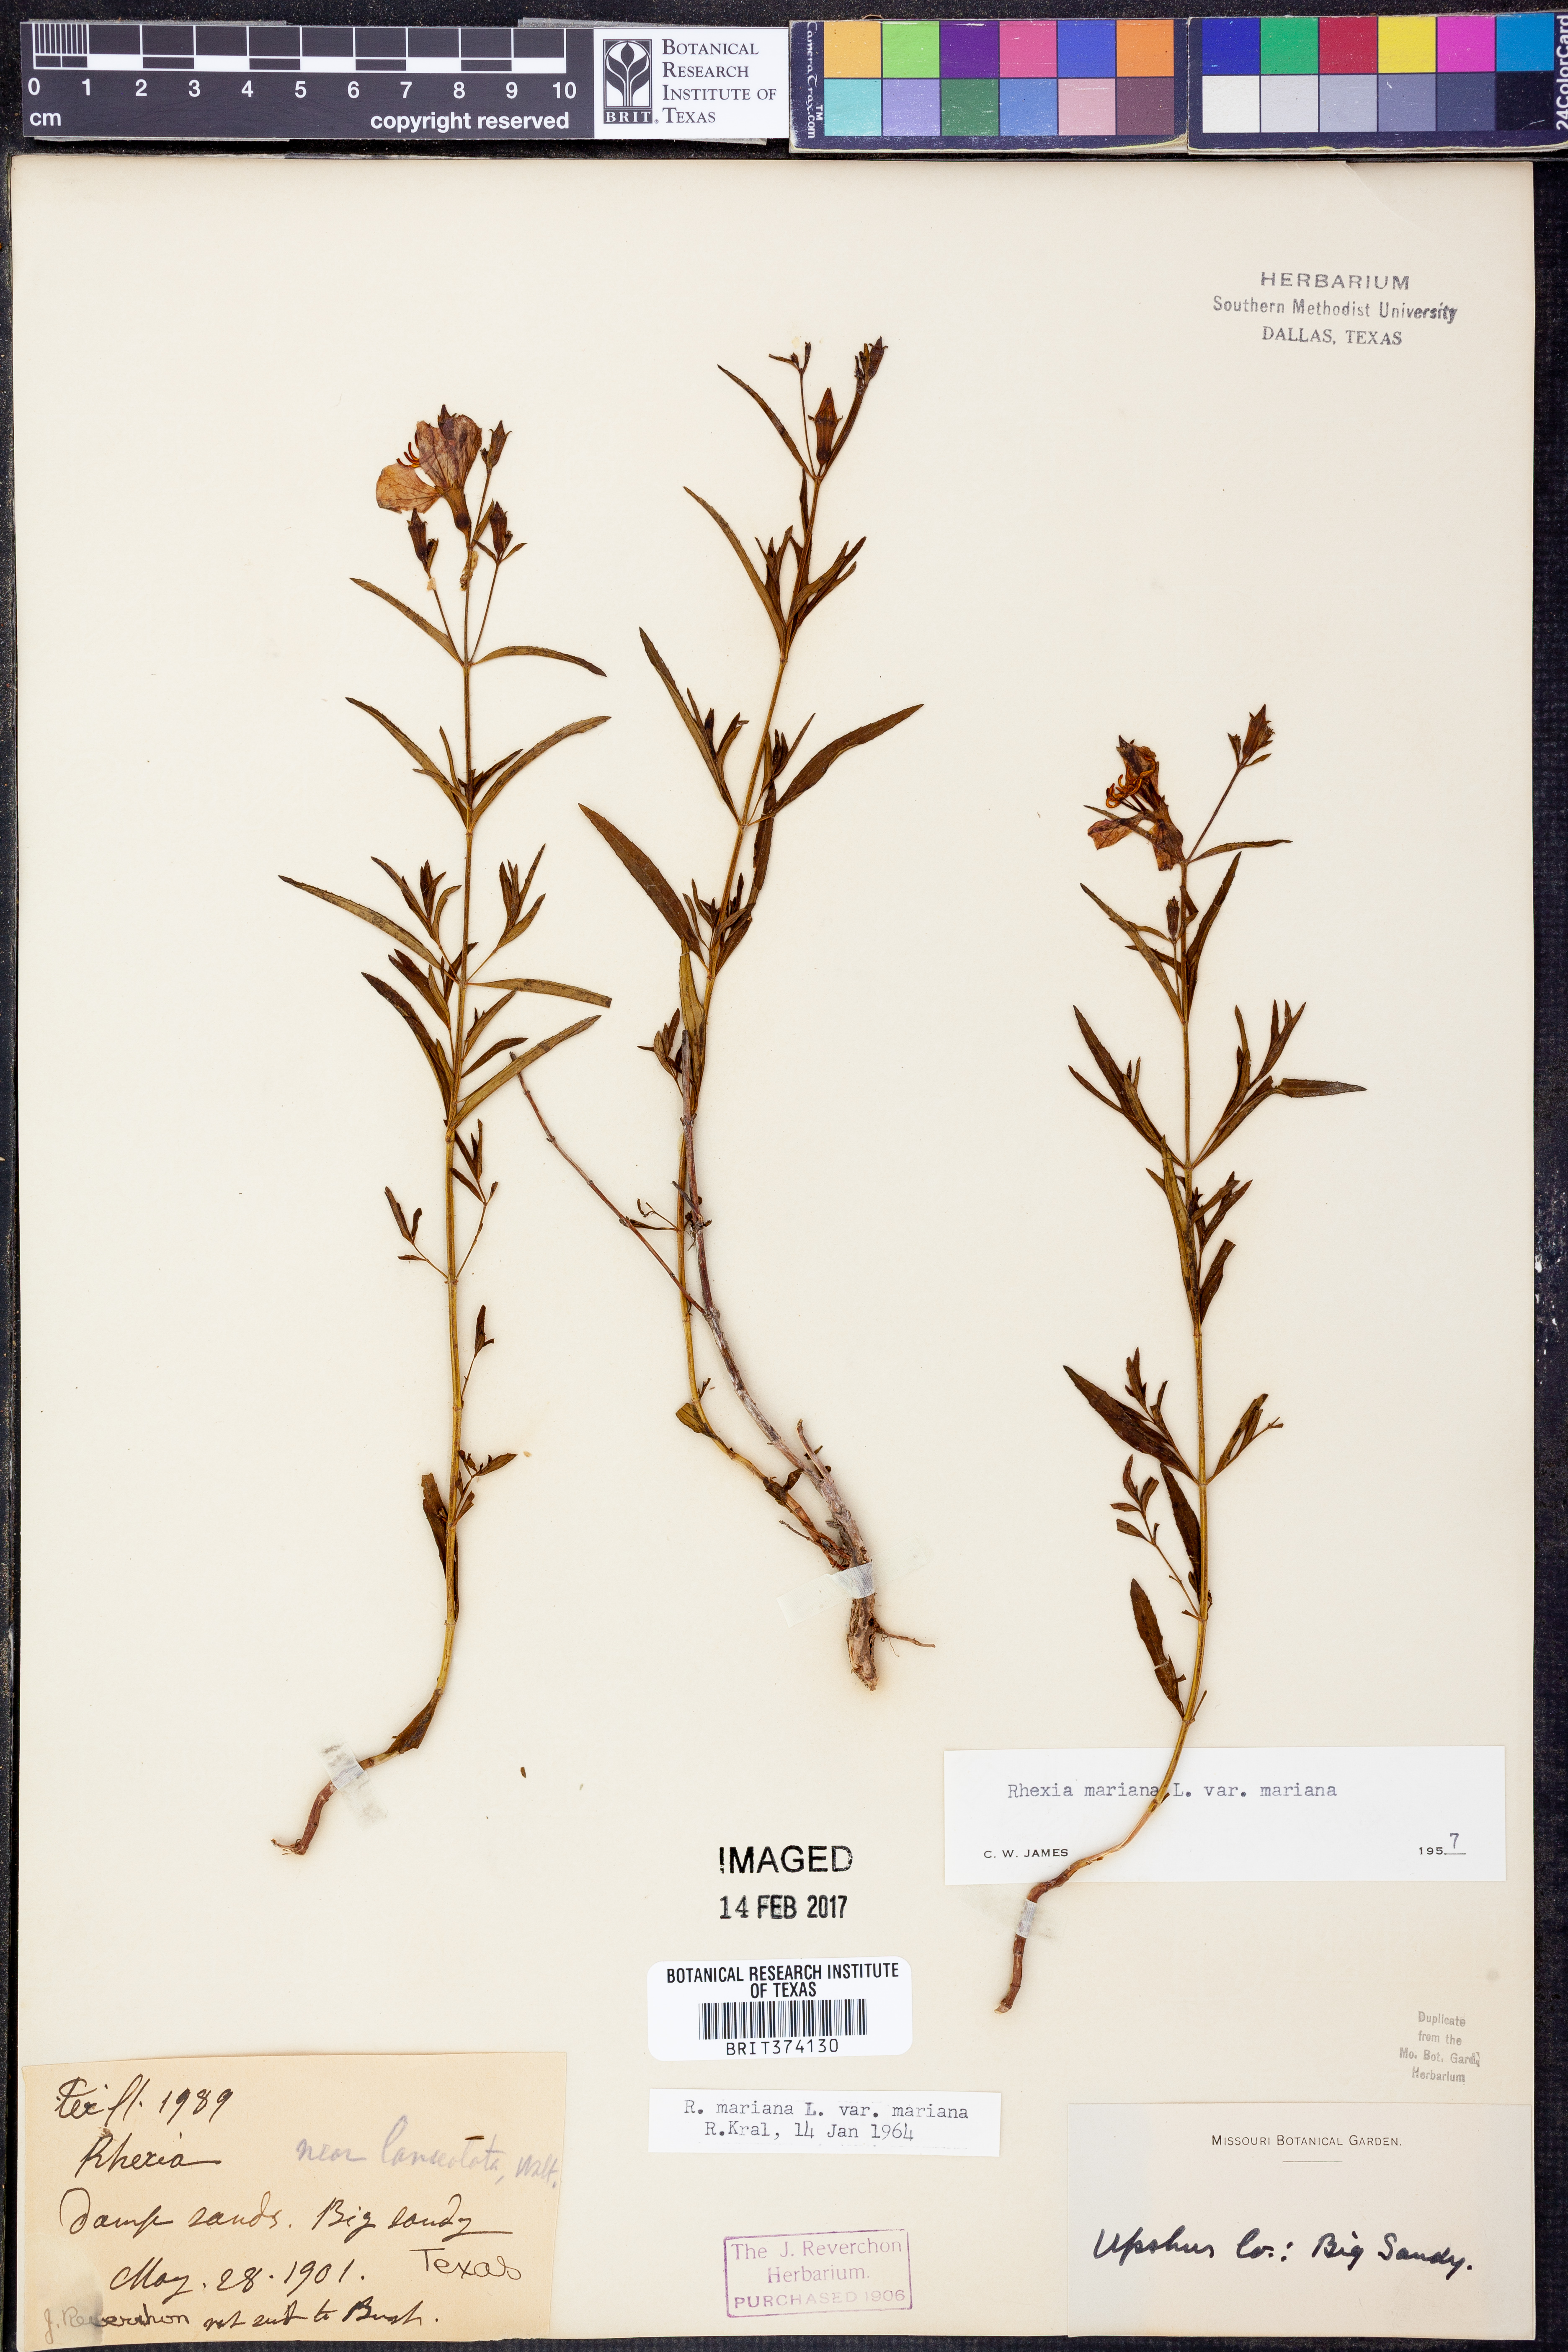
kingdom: Plantae
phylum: Tracheophyta
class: Magnoliopsida
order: Myrtales
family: Melastomataceae
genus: Rhexia
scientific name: Rhexia mariana
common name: Dull meadow-pitcher
